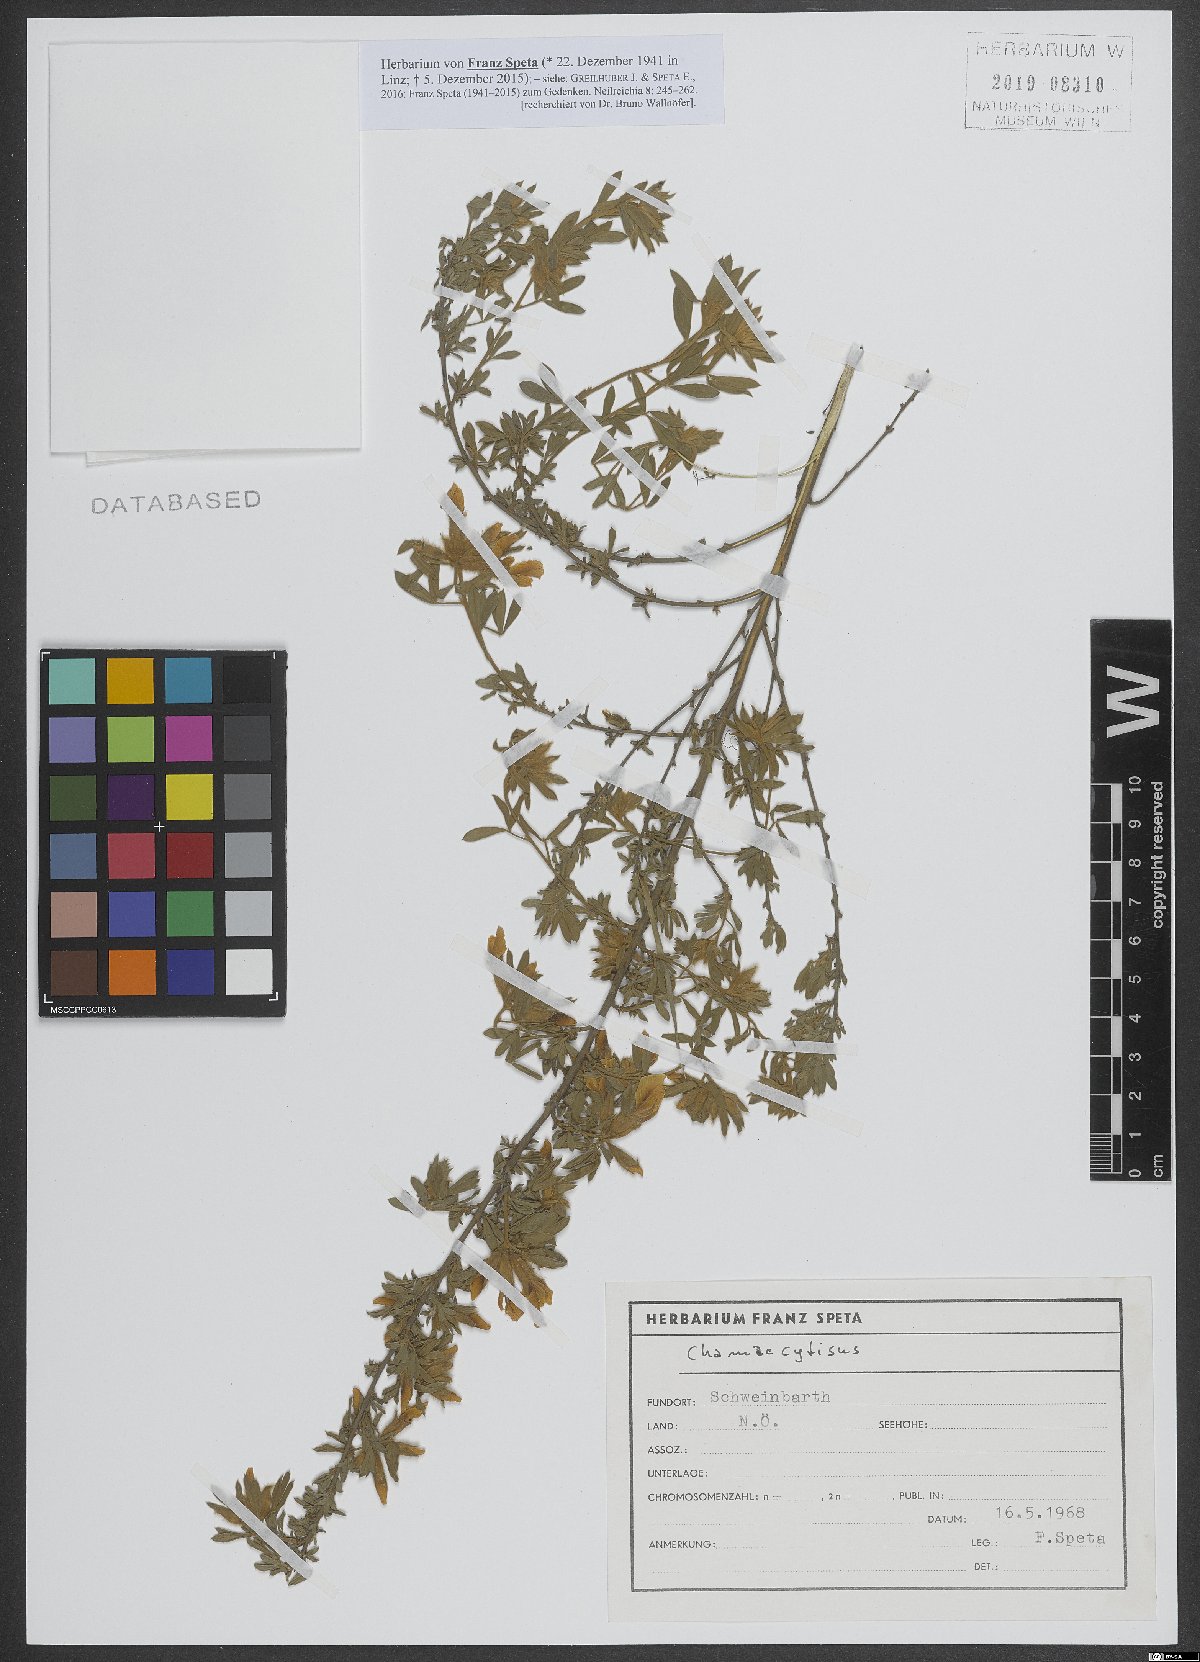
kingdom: Plantae
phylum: Tracheophyta
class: Magnoliopsida
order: Fabales
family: Fabaceae
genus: Chamaecytisus
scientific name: Chamaecytisus
